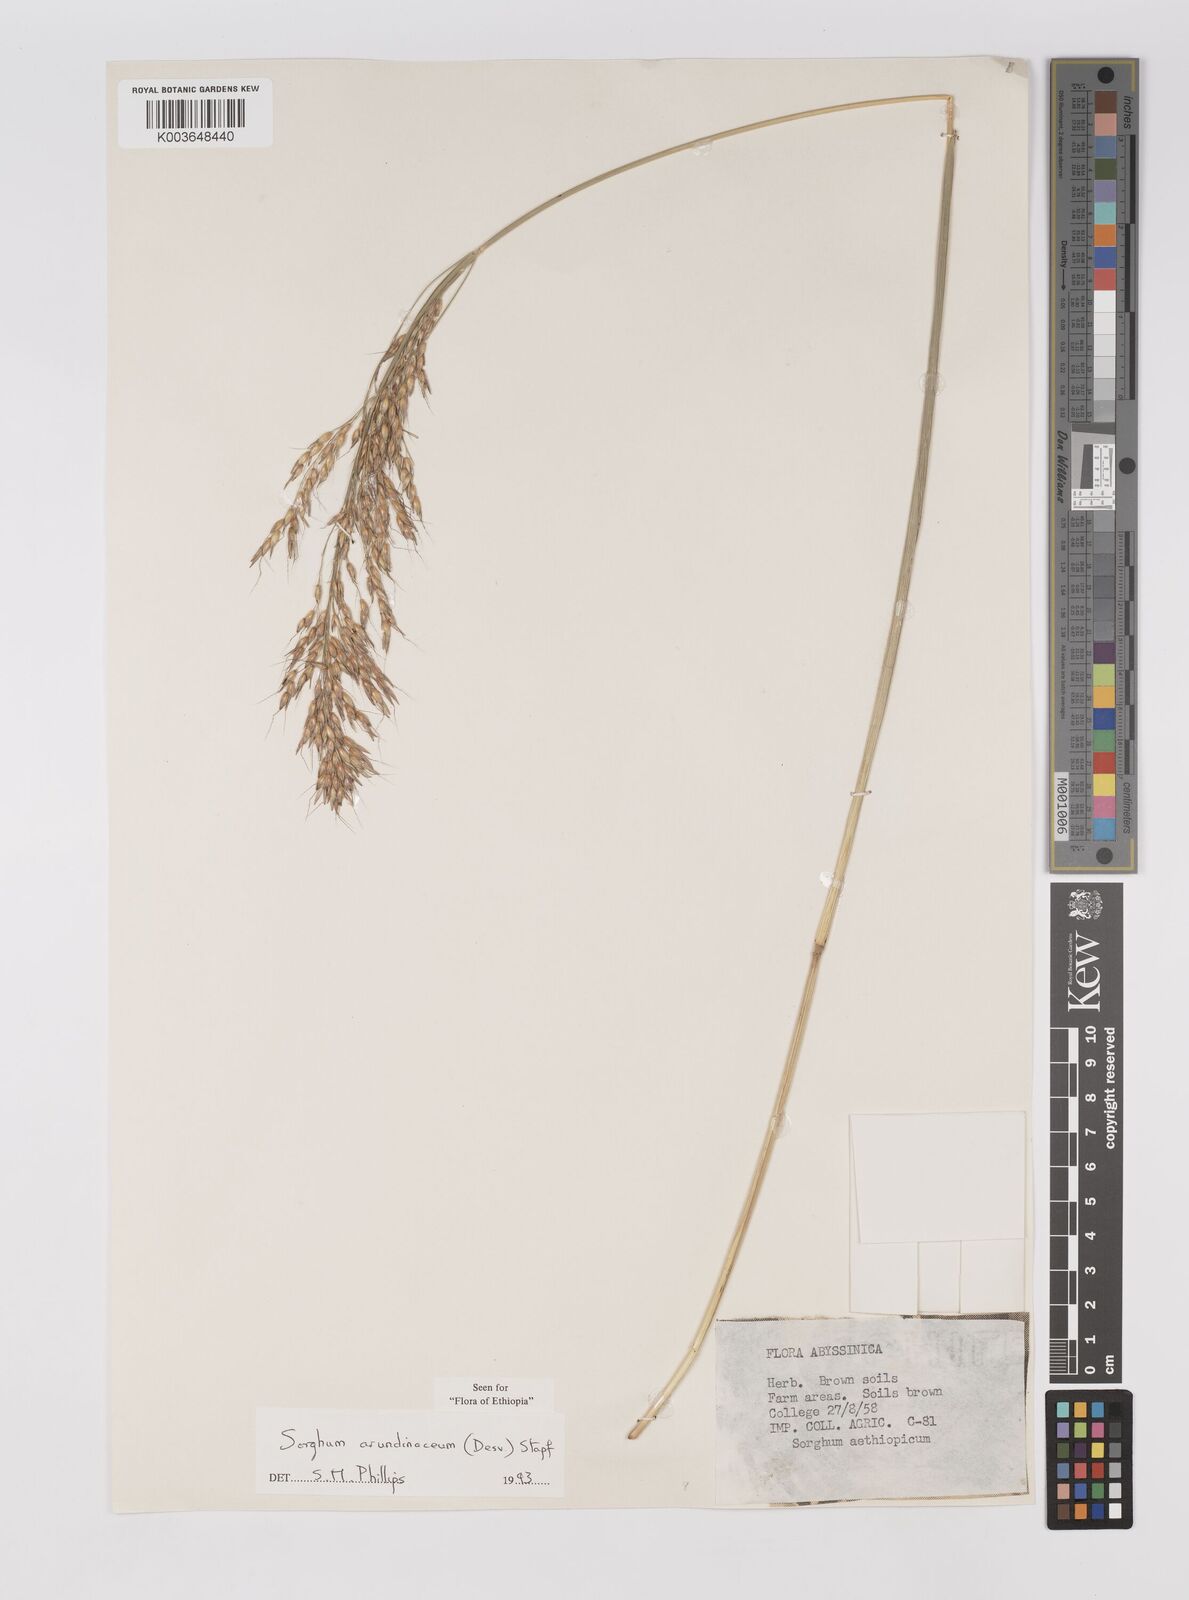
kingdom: Plantae
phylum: Tracheophyta
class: Liliopsida
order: Poales
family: Poaceae
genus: Sorghum
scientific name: Sorghum arundinaceum
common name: Sorghum
